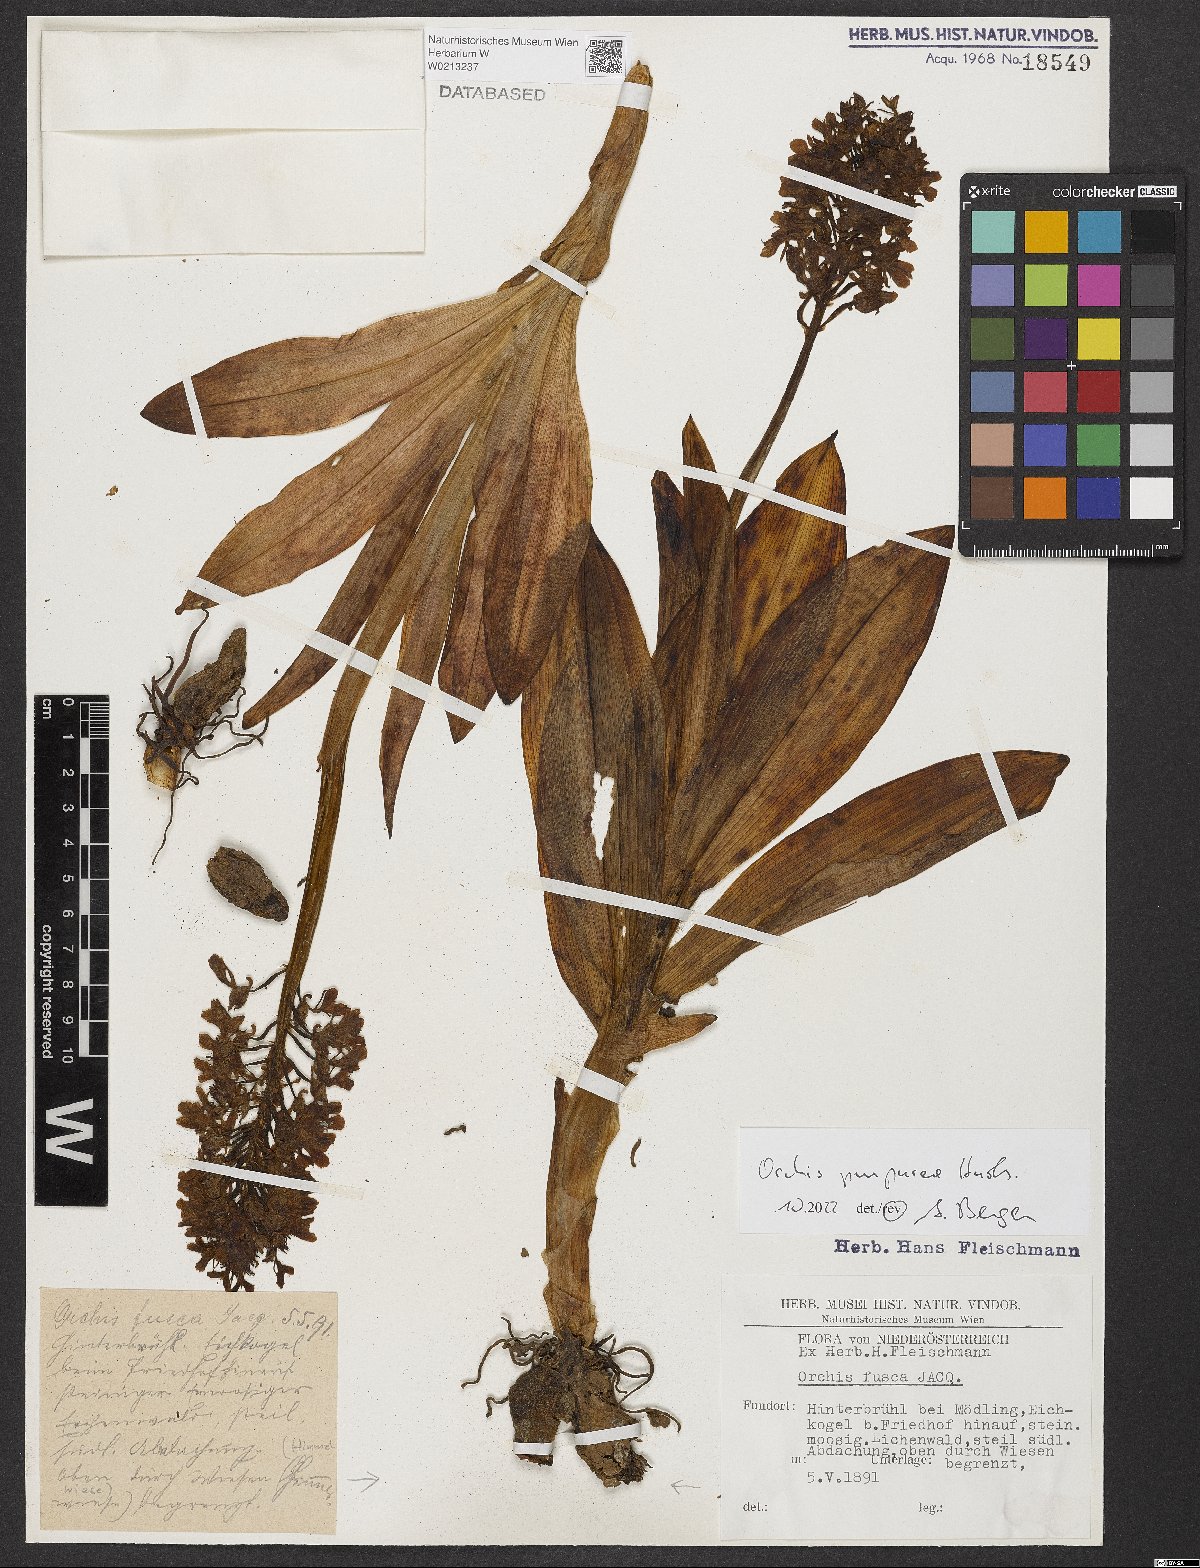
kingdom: Plantae
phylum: Tracheophyta
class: Liliopsida
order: Asparagales
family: Orchidaceae
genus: Orchis
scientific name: Orchis purpurea
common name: Lady orchid
